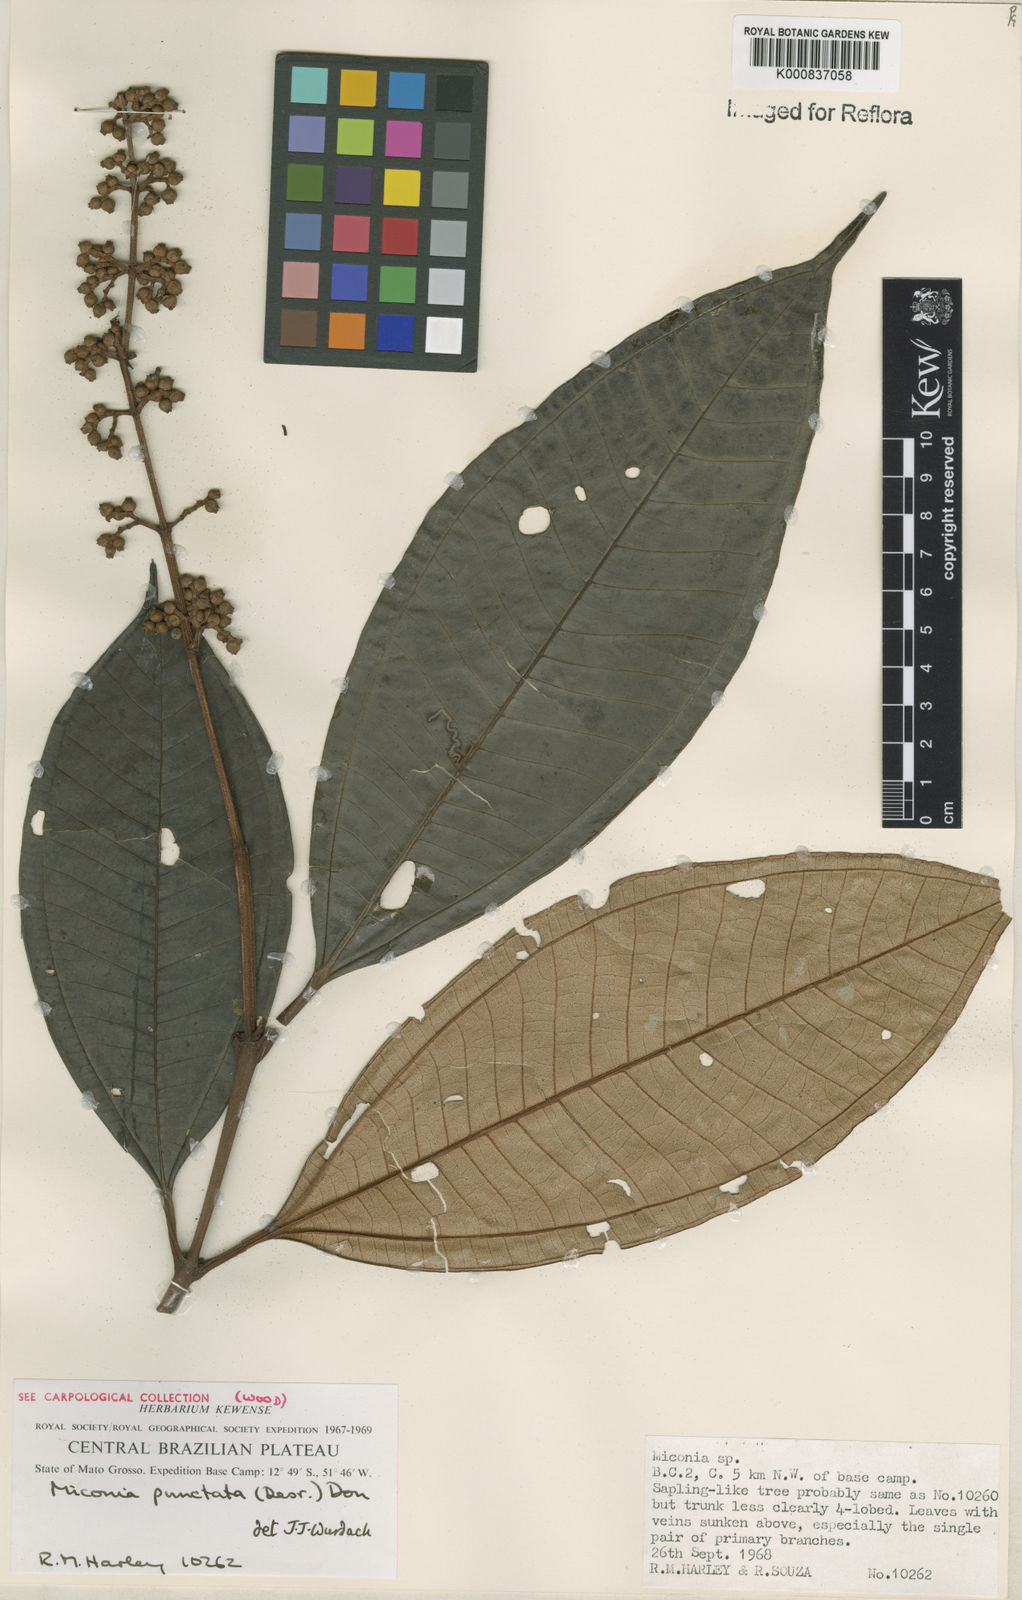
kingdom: Plantae
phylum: Tracheophyta
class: Magnoliopsida
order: Myrtales
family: Melastomataceae
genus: Miconia
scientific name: Miconia punctata
